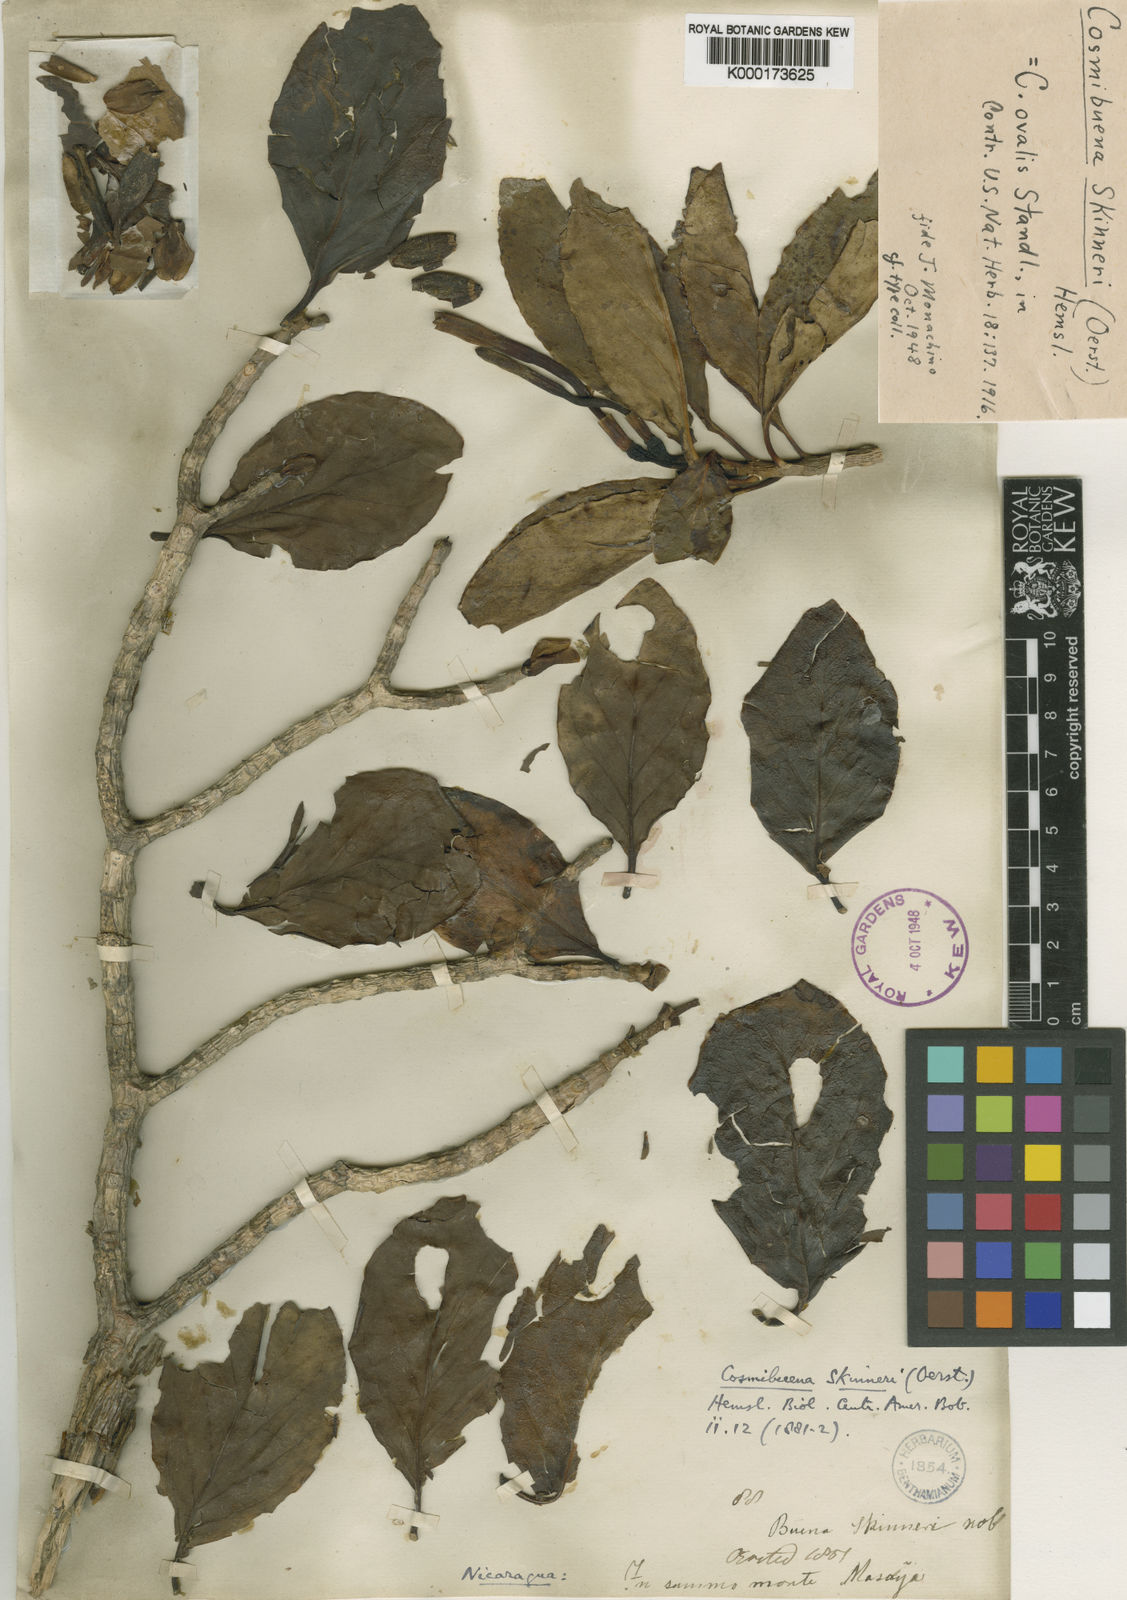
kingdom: Plantae
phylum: Tracheophyta
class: Magnoliopsida
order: Gentianales
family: Rubiaceae
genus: Cosmibuena
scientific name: Cosmibuena grandiflora
